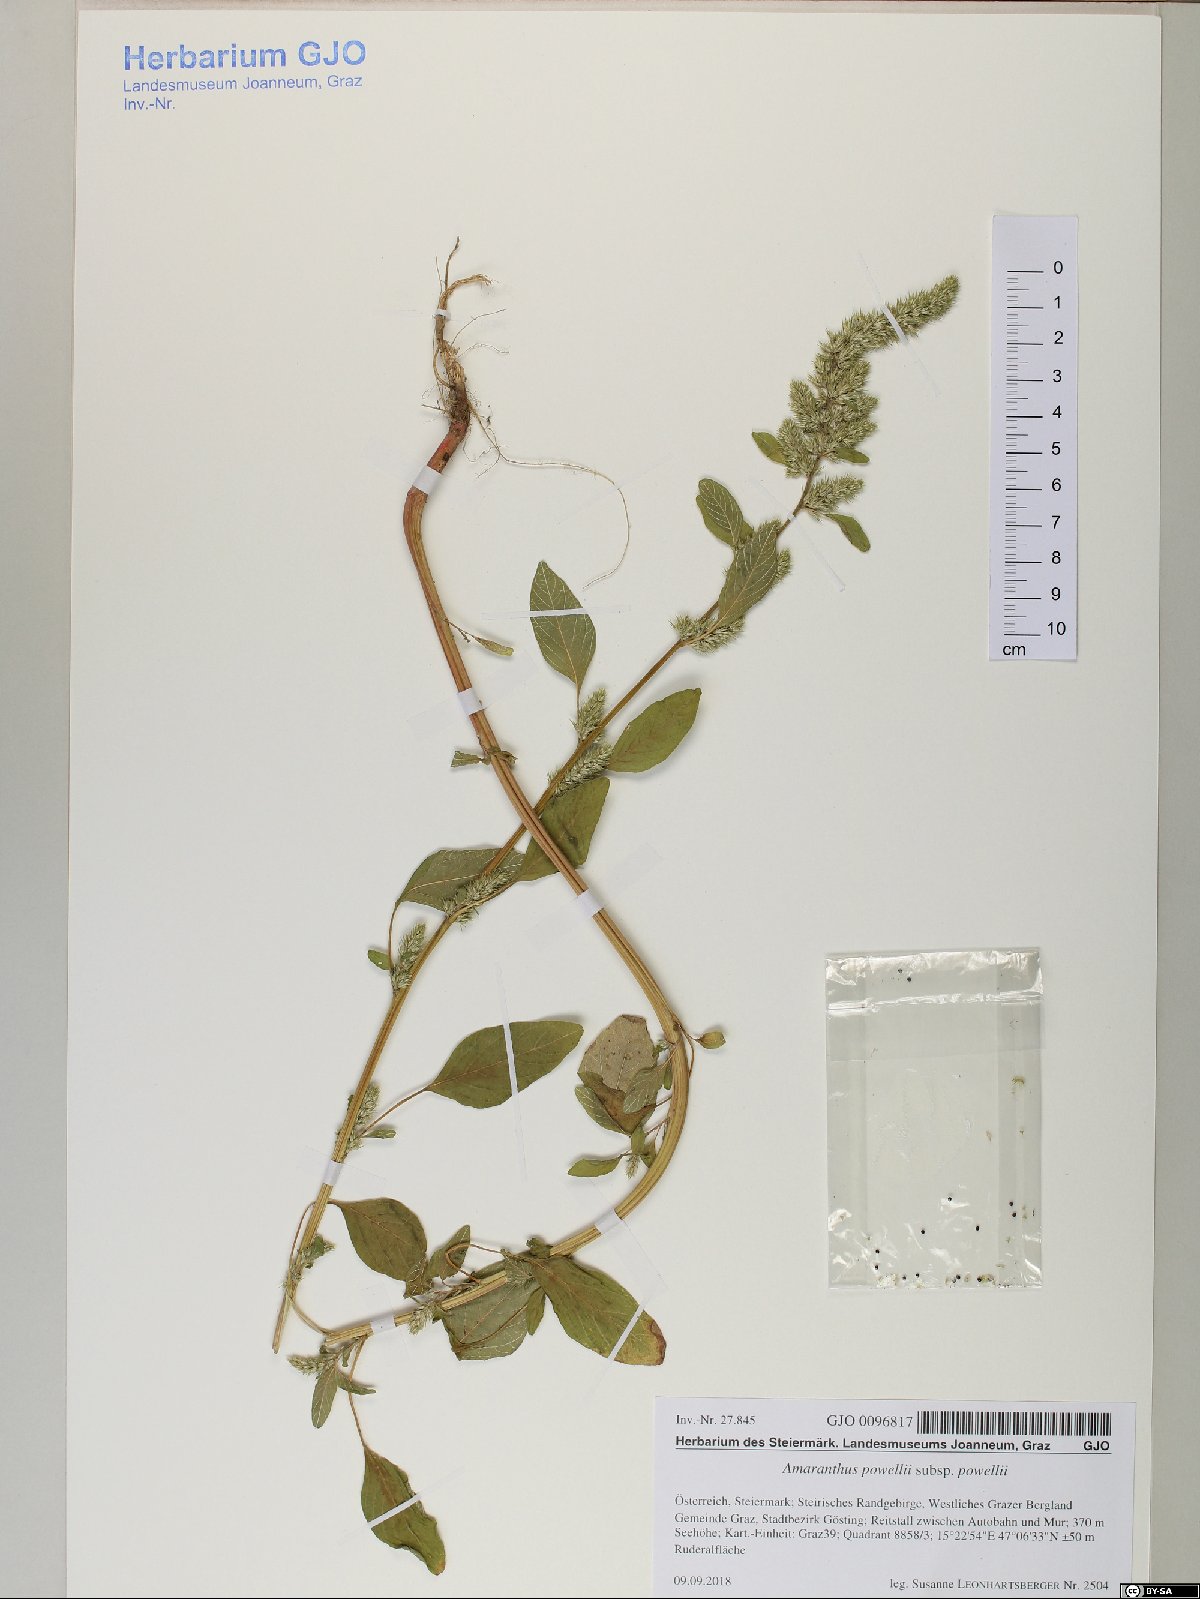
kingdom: Plantae
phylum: Tracheophyta
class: Magnoliopsida
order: Caryophyllales
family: Amaranthaceae
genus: Amaranthus
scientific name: Amaranthus powellii
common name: Powell's amaranth
